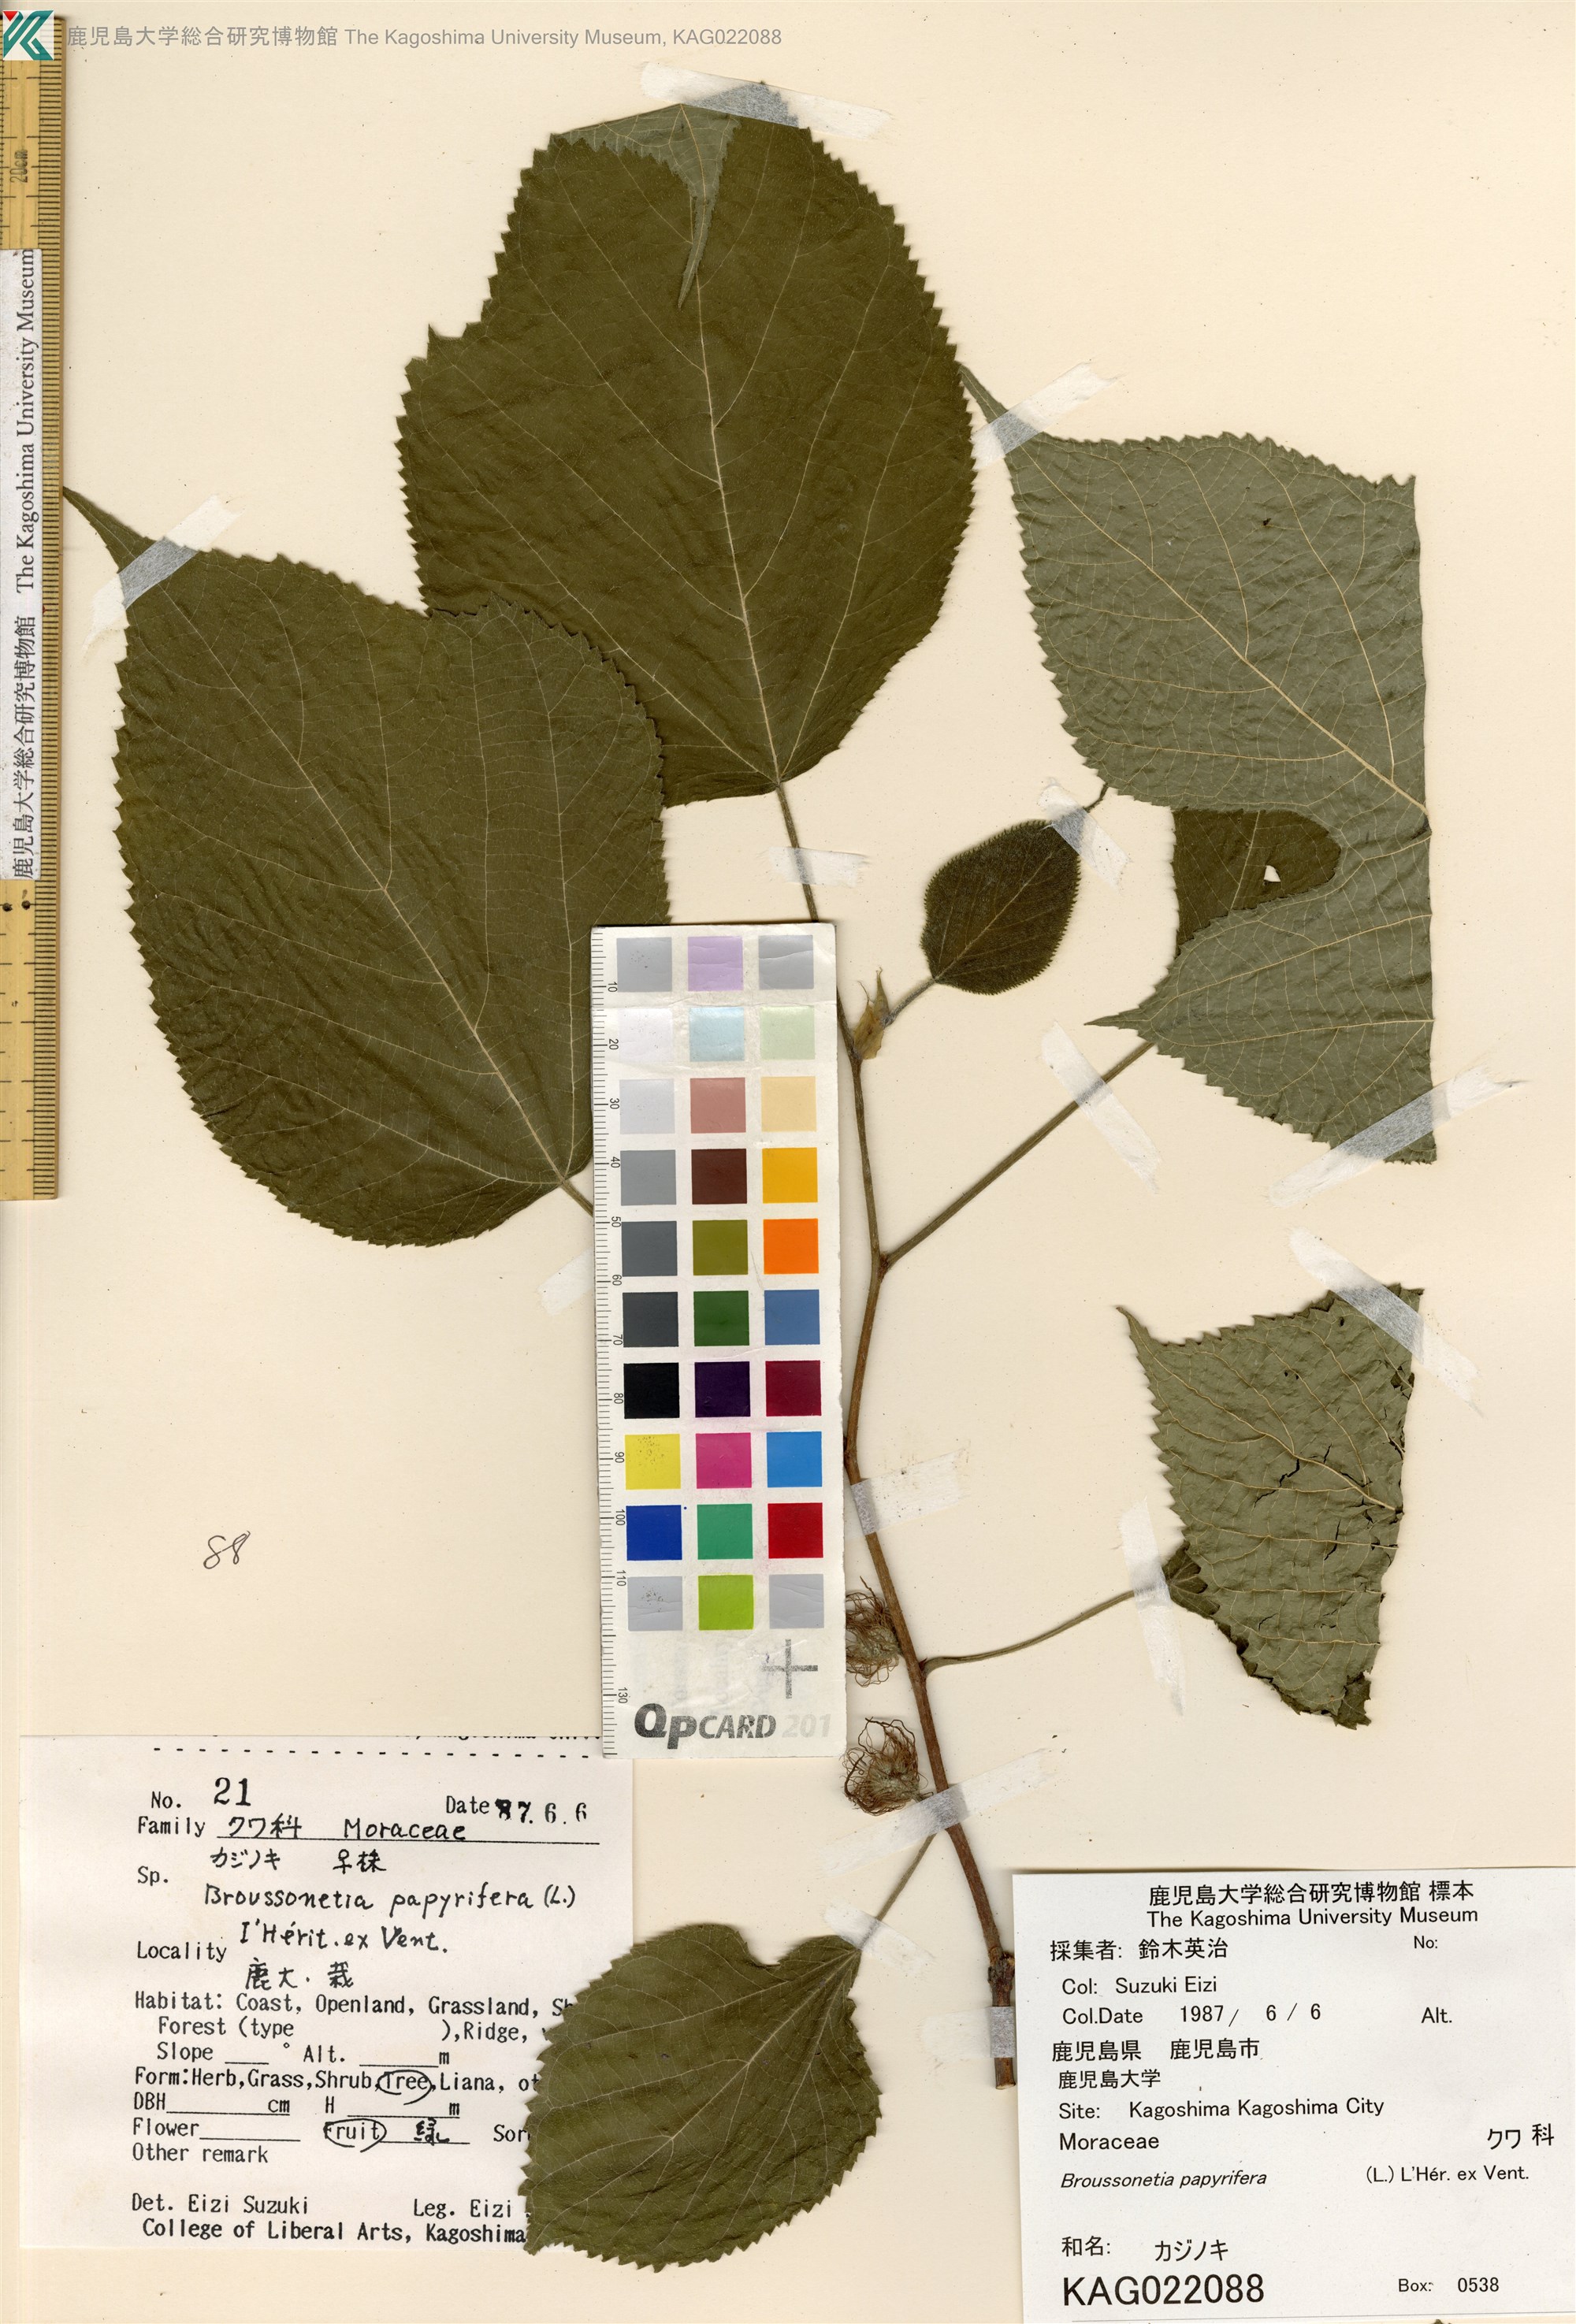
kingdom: Plantae
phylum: Tracheophyta
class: Magnoliopsida
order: Rosales
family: Moraceae
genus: Broussonetia
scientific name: Broussonetia papyrifera
